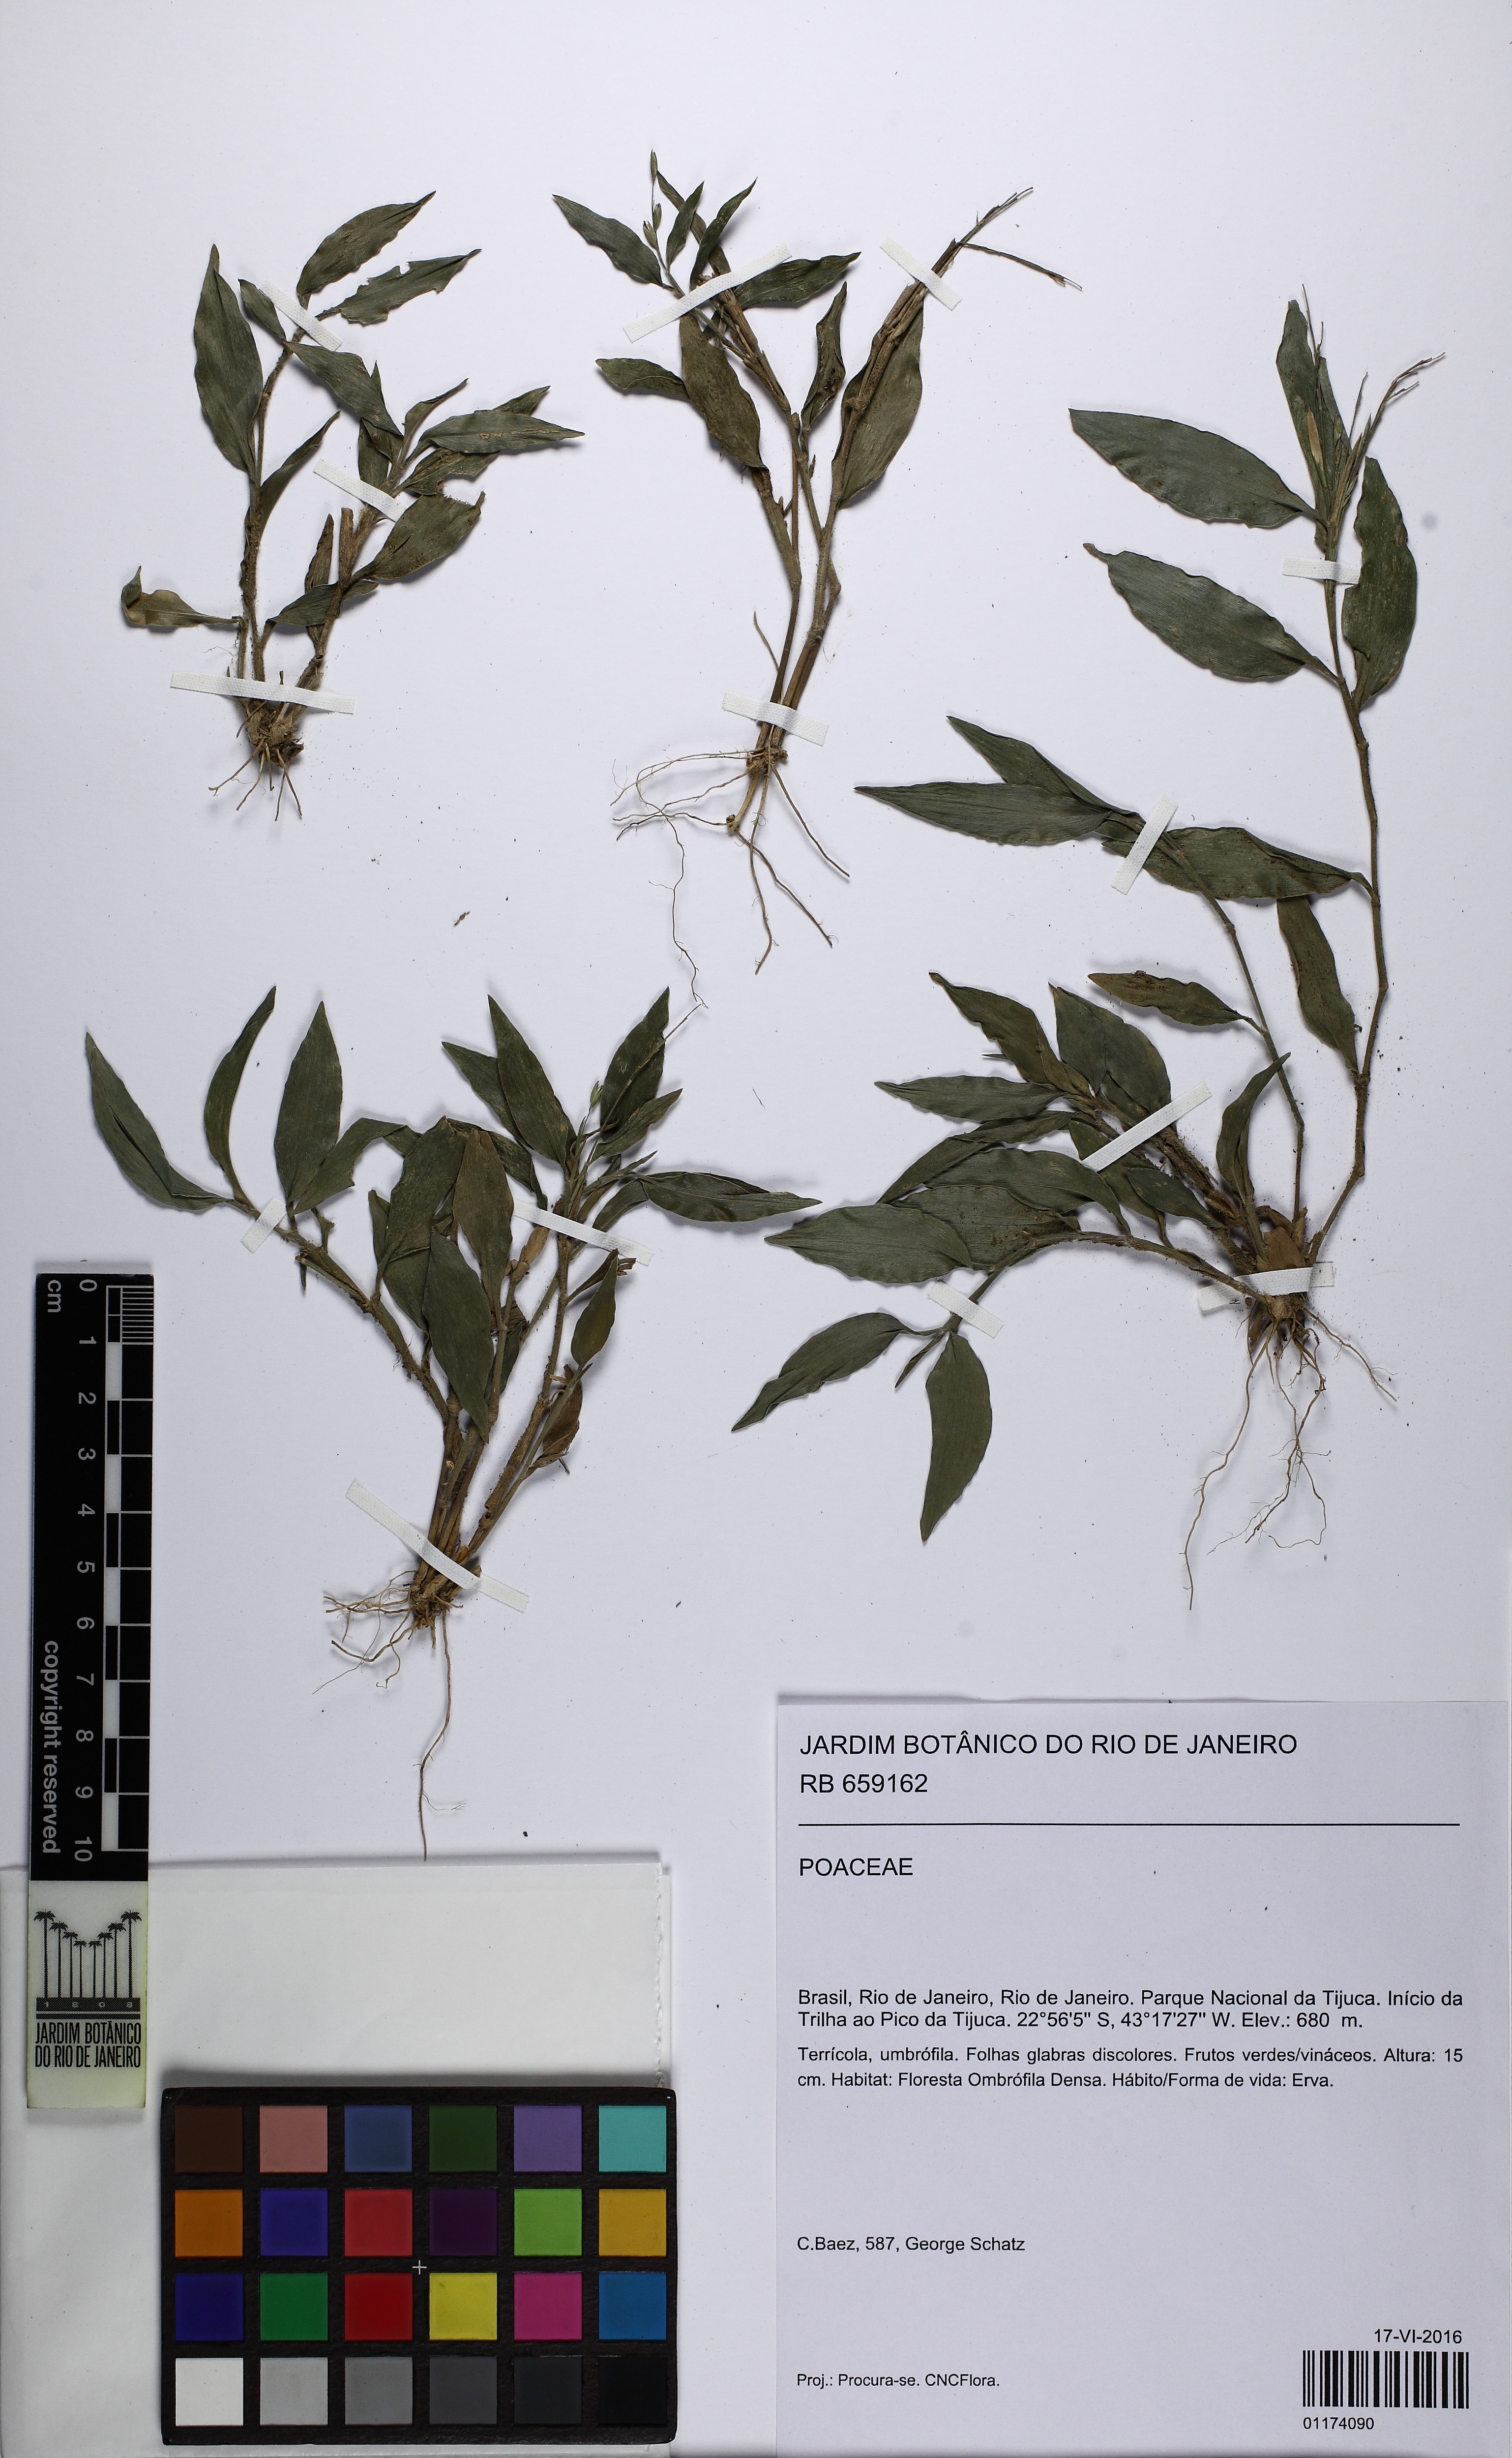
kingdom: Plantae
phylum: Tracheophyta
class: Liliopsida
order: Poales
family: Poaceae
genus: Panicum
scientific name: Panicum
